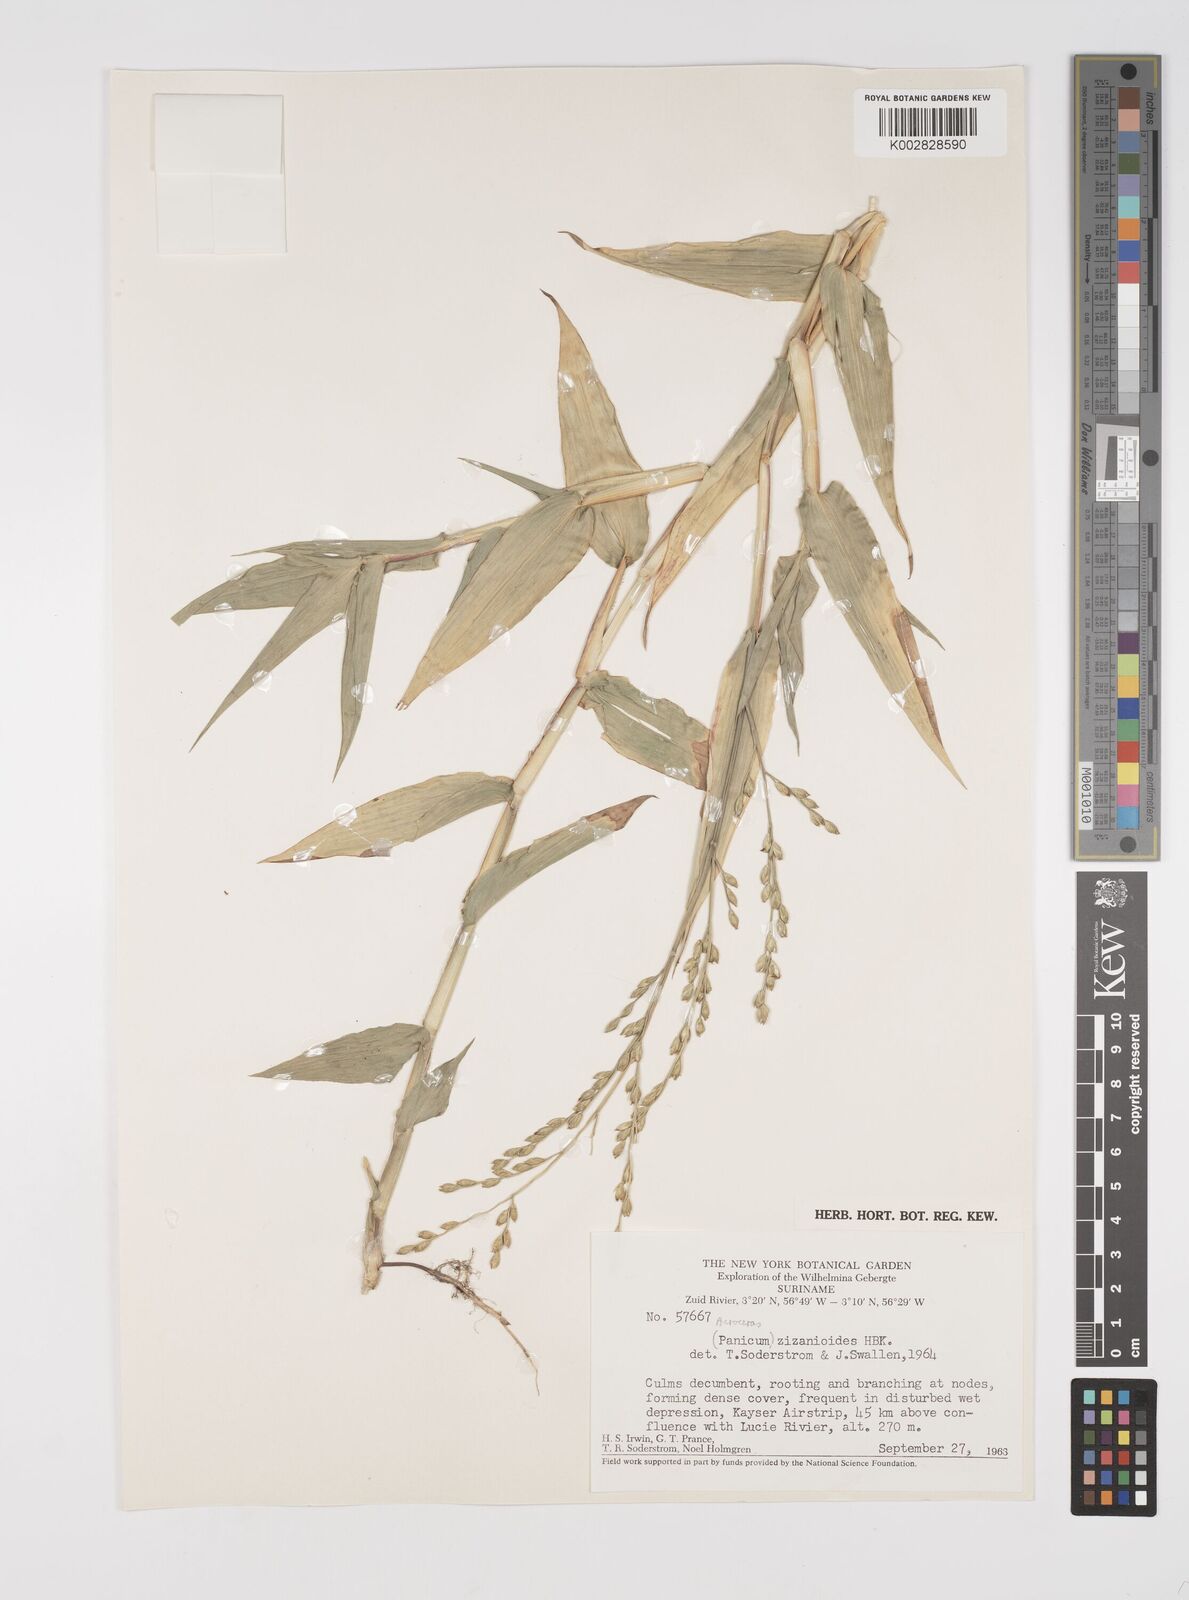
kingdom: Plantae
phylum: Tracheophyta
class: Liliopsida
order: Poales
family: Poaceae
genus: Acroceras
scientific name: Acroceras zizanioides
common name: Oat grass
